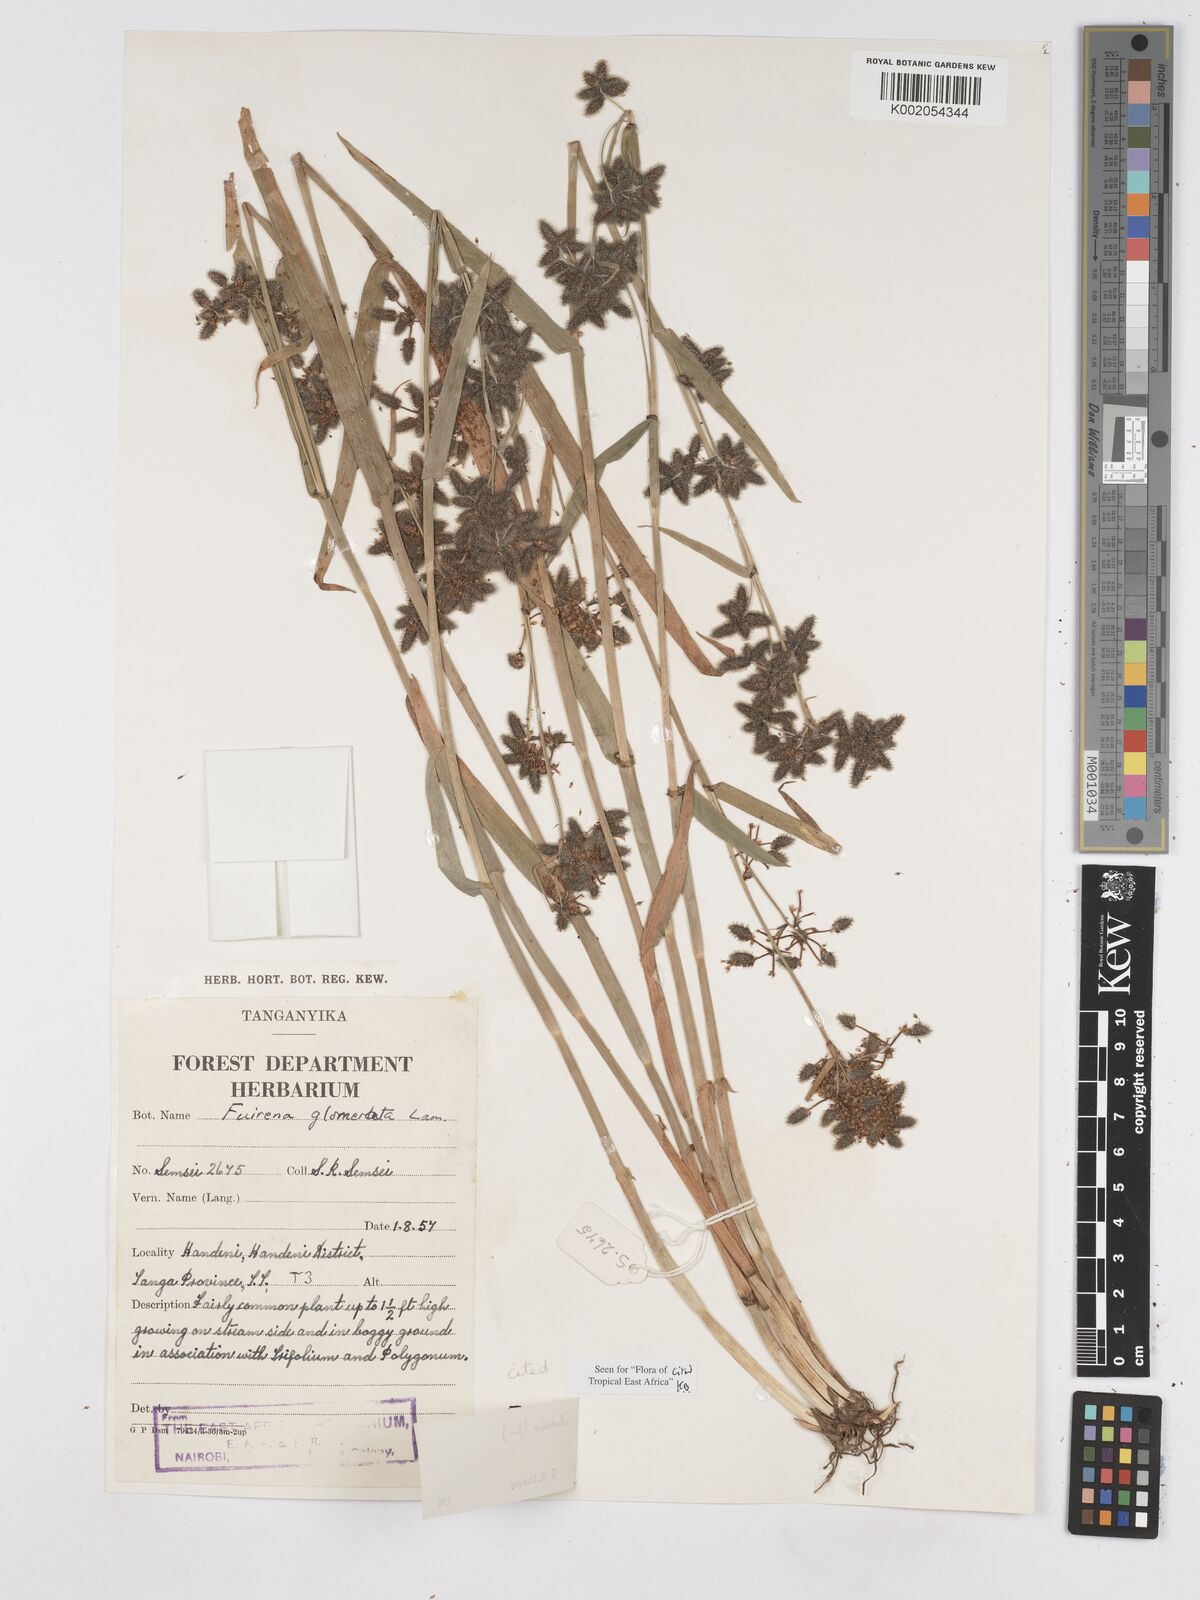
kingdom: Plantae
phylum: Tracheophyta
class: Liliopsida
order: Poales
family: Cyperaceae
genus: Fuirena
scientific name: Fuirena ciliaris
